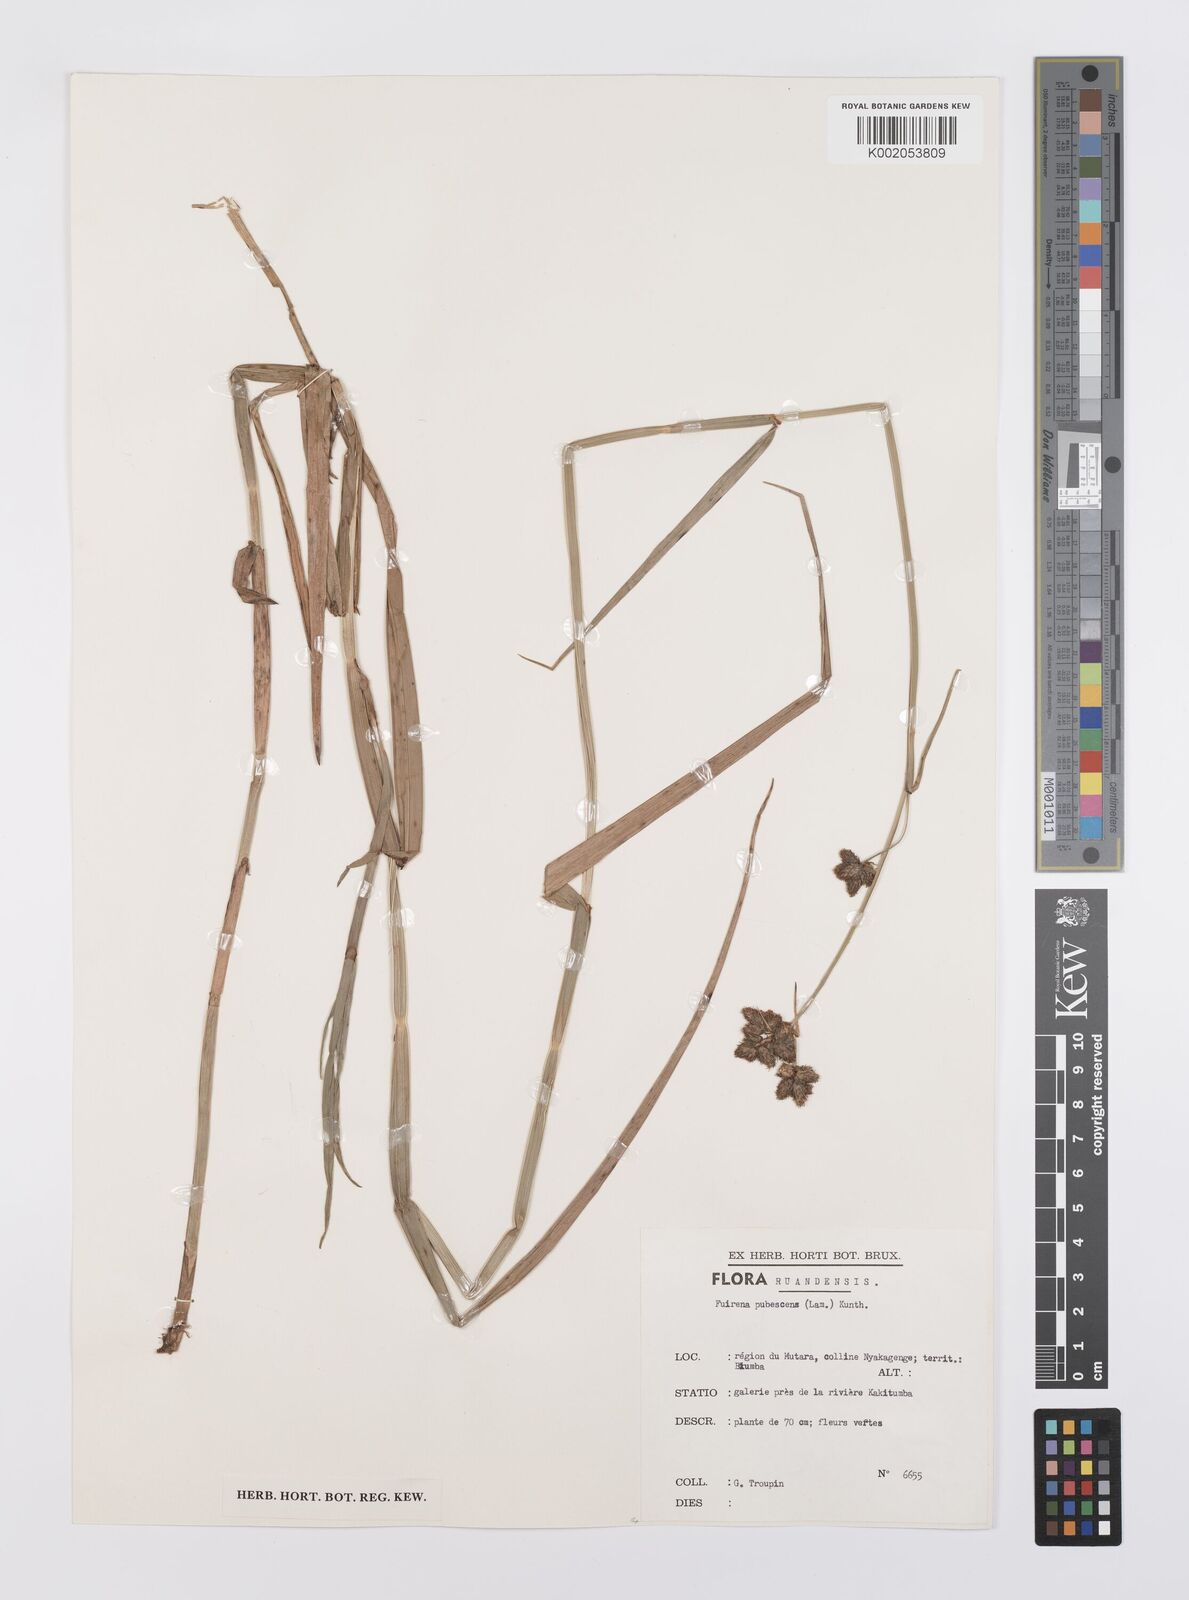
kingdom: Plantae
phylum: Tracheophyta
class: Liliopsida
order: Poales
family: Cyperaceae
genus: Fuirena
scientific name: Fuirena pubescens
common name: Hairy sedge
